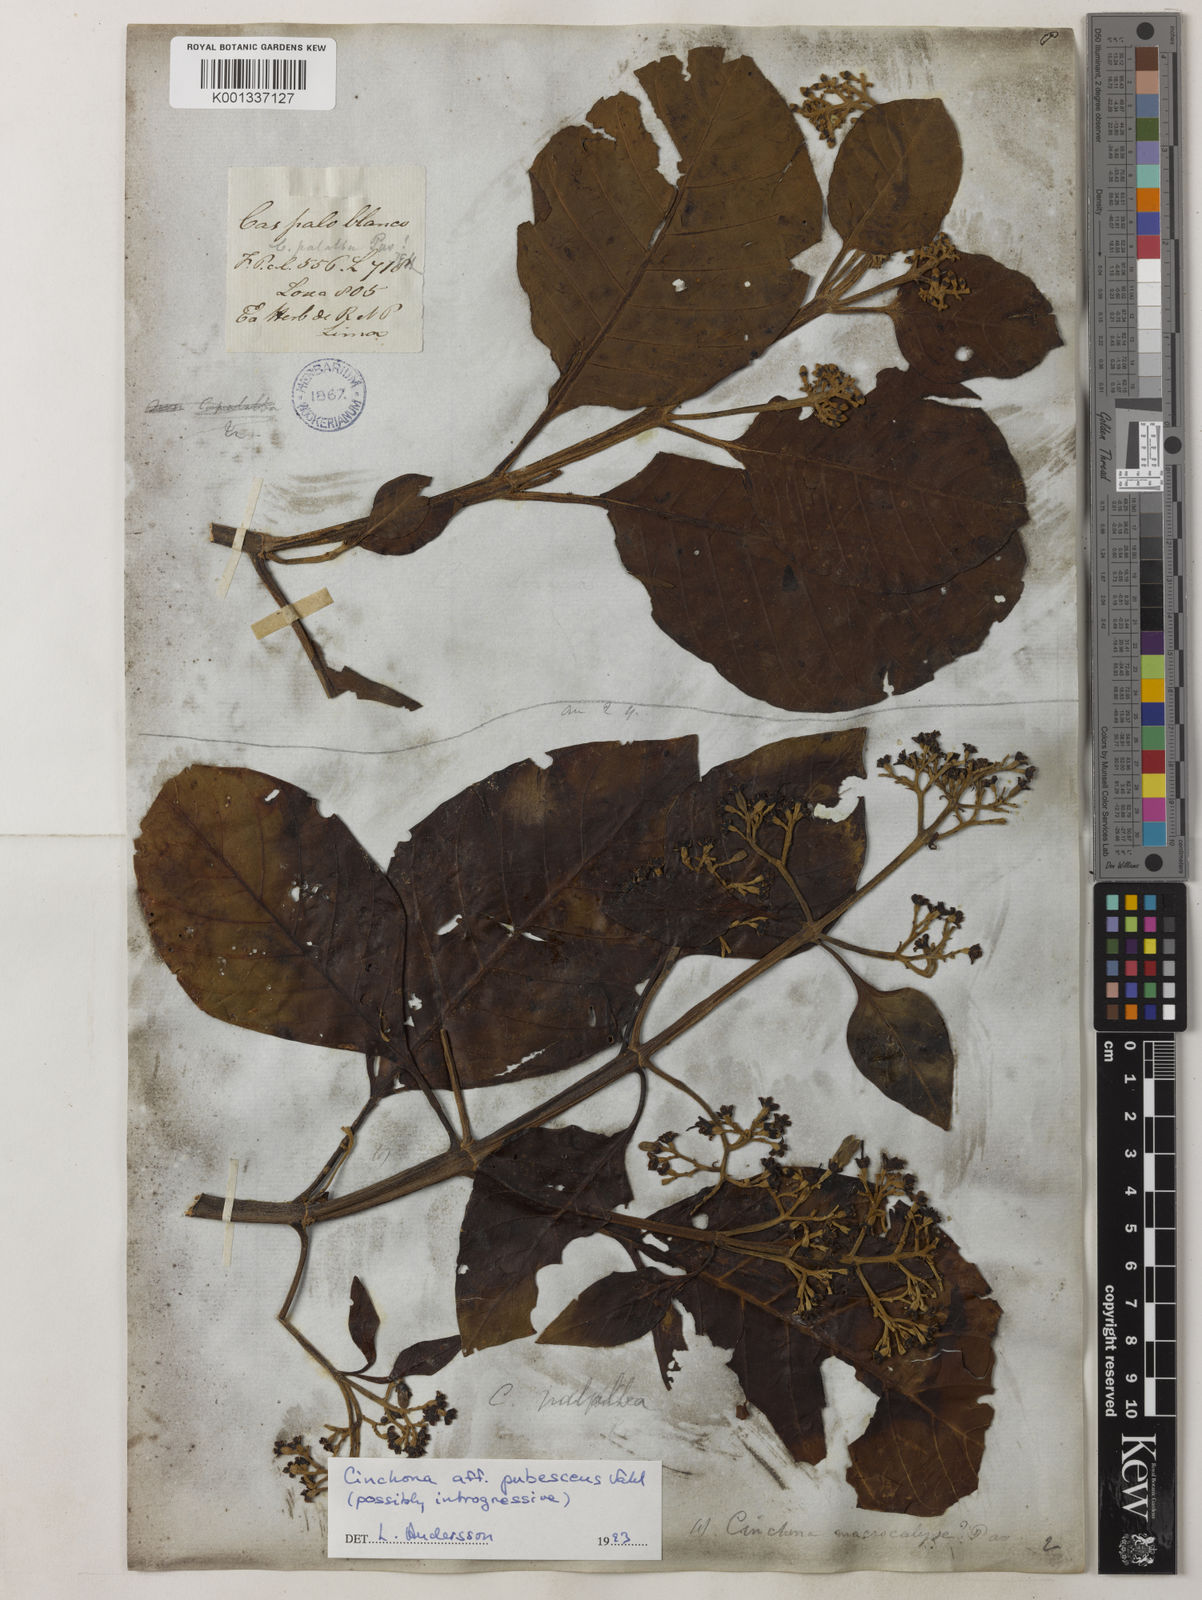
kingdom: Plantae
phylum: Tracheophyta
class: Magnoliopsida
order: Gentianales
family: Rubiaceae
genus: Cinchona
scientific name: Cinchona pubescens
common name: Quinine
